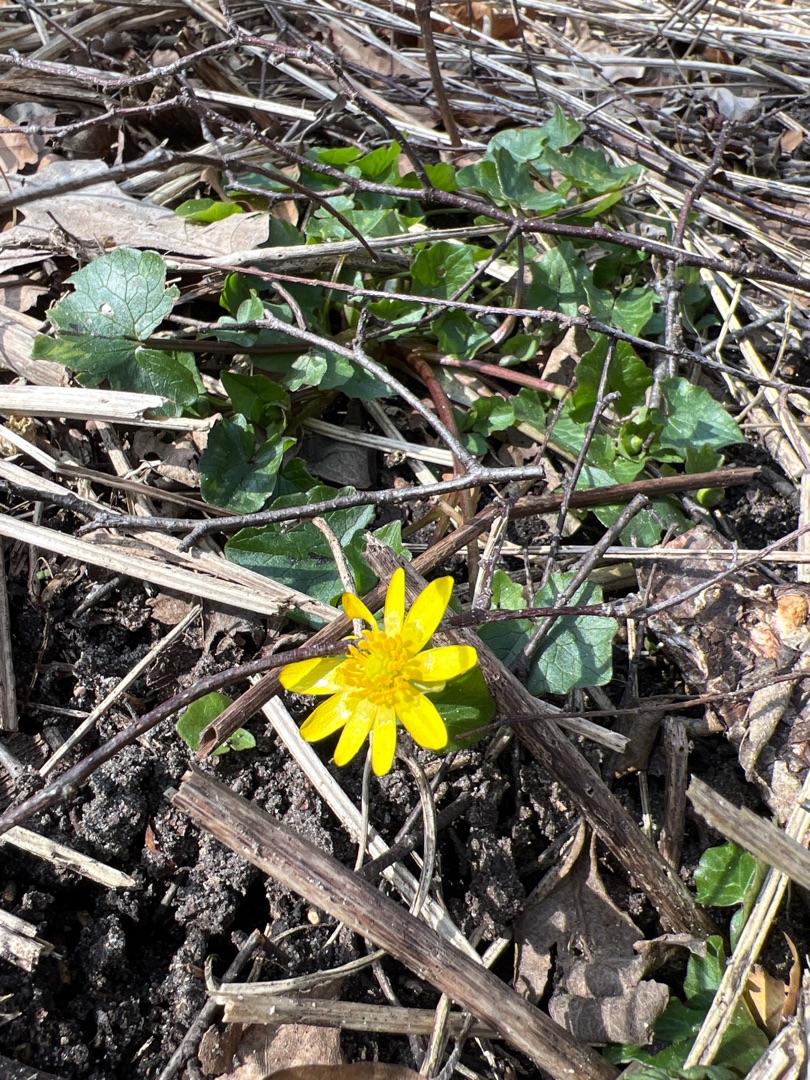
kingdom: Plantae
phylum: Tracheophyta
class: Magnoliopsida
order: Ranunculales
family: Ranunculaceae
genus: Ficaria
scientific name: Ficaria verna
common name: Almindelig vorterod
